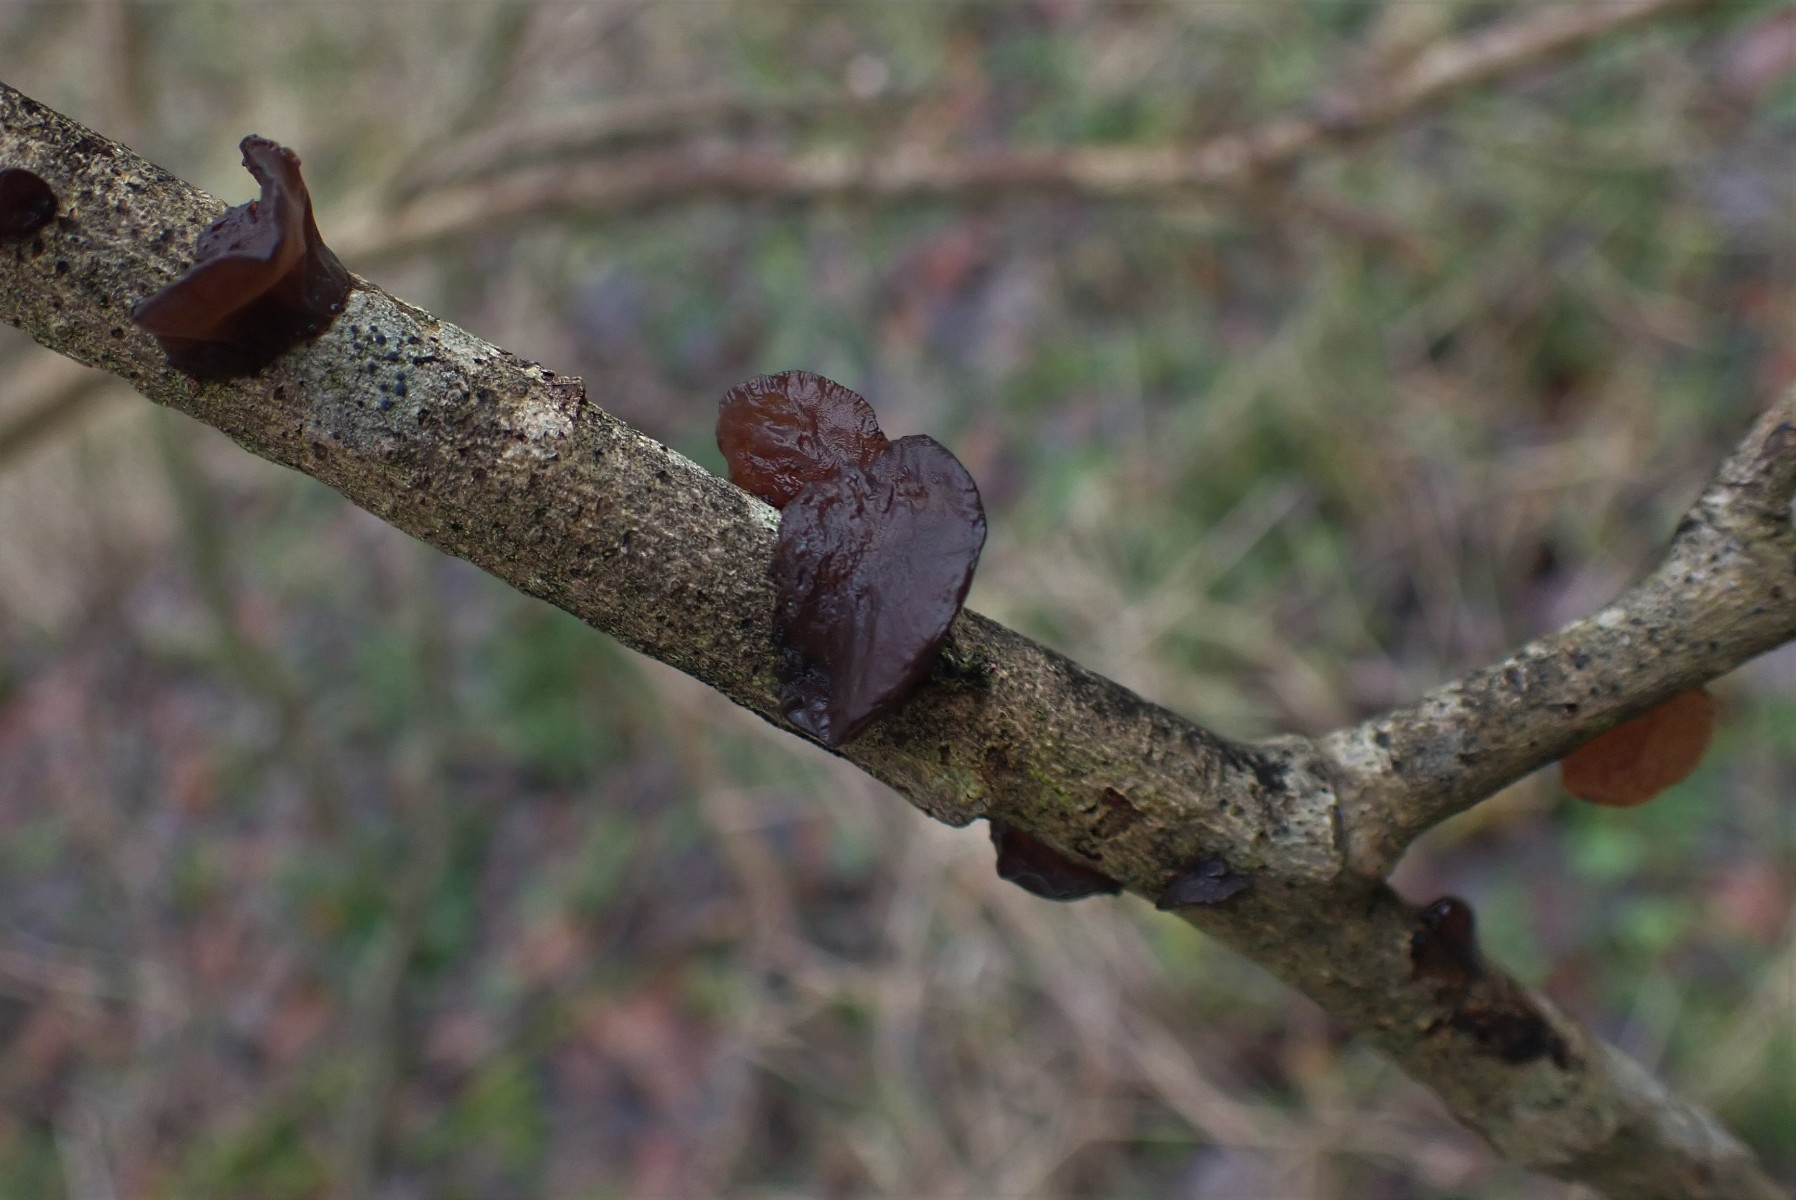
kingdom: Fungi
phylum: Basidiomycota
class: Agaricomycetes
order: Auriculariales
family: Auriculariaceae
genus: Exidia
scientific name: Exidia recisa
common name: pile-bævretop
